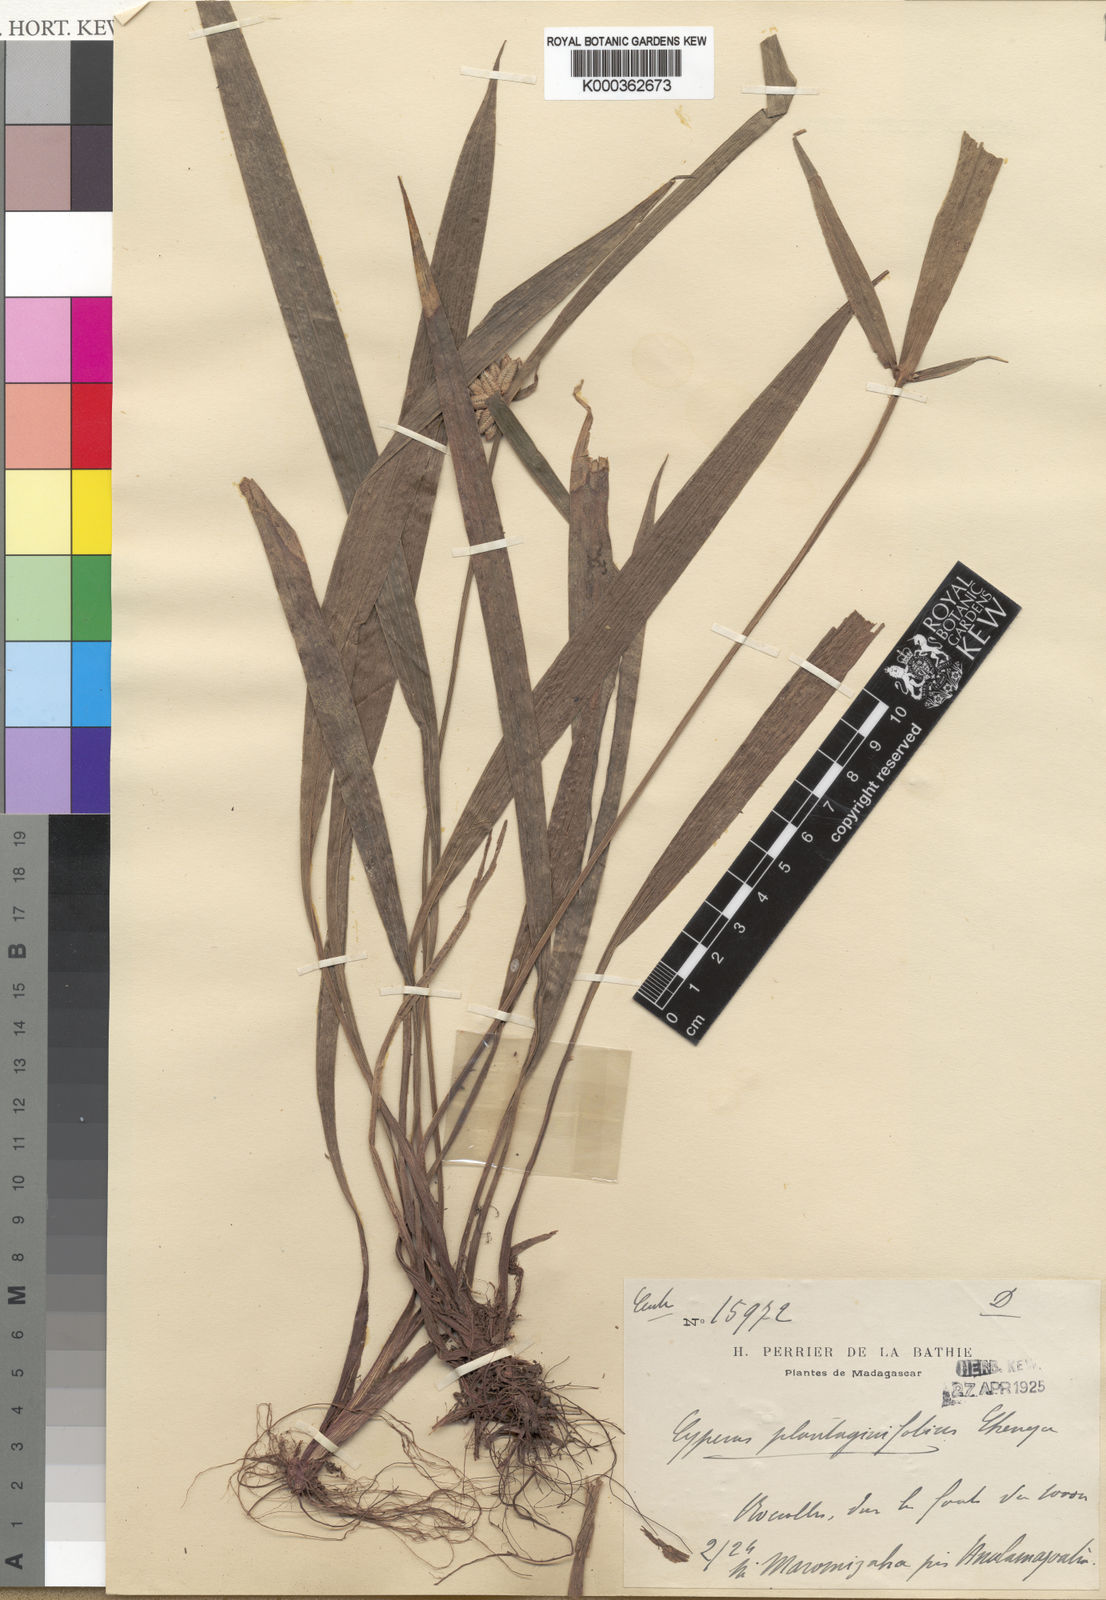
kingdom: Plantae
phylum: Tracheophyta
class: Liliopsida
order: Poales
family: Cyperaceae
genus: Cyperus
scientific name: Cyperus plantaginifolius
